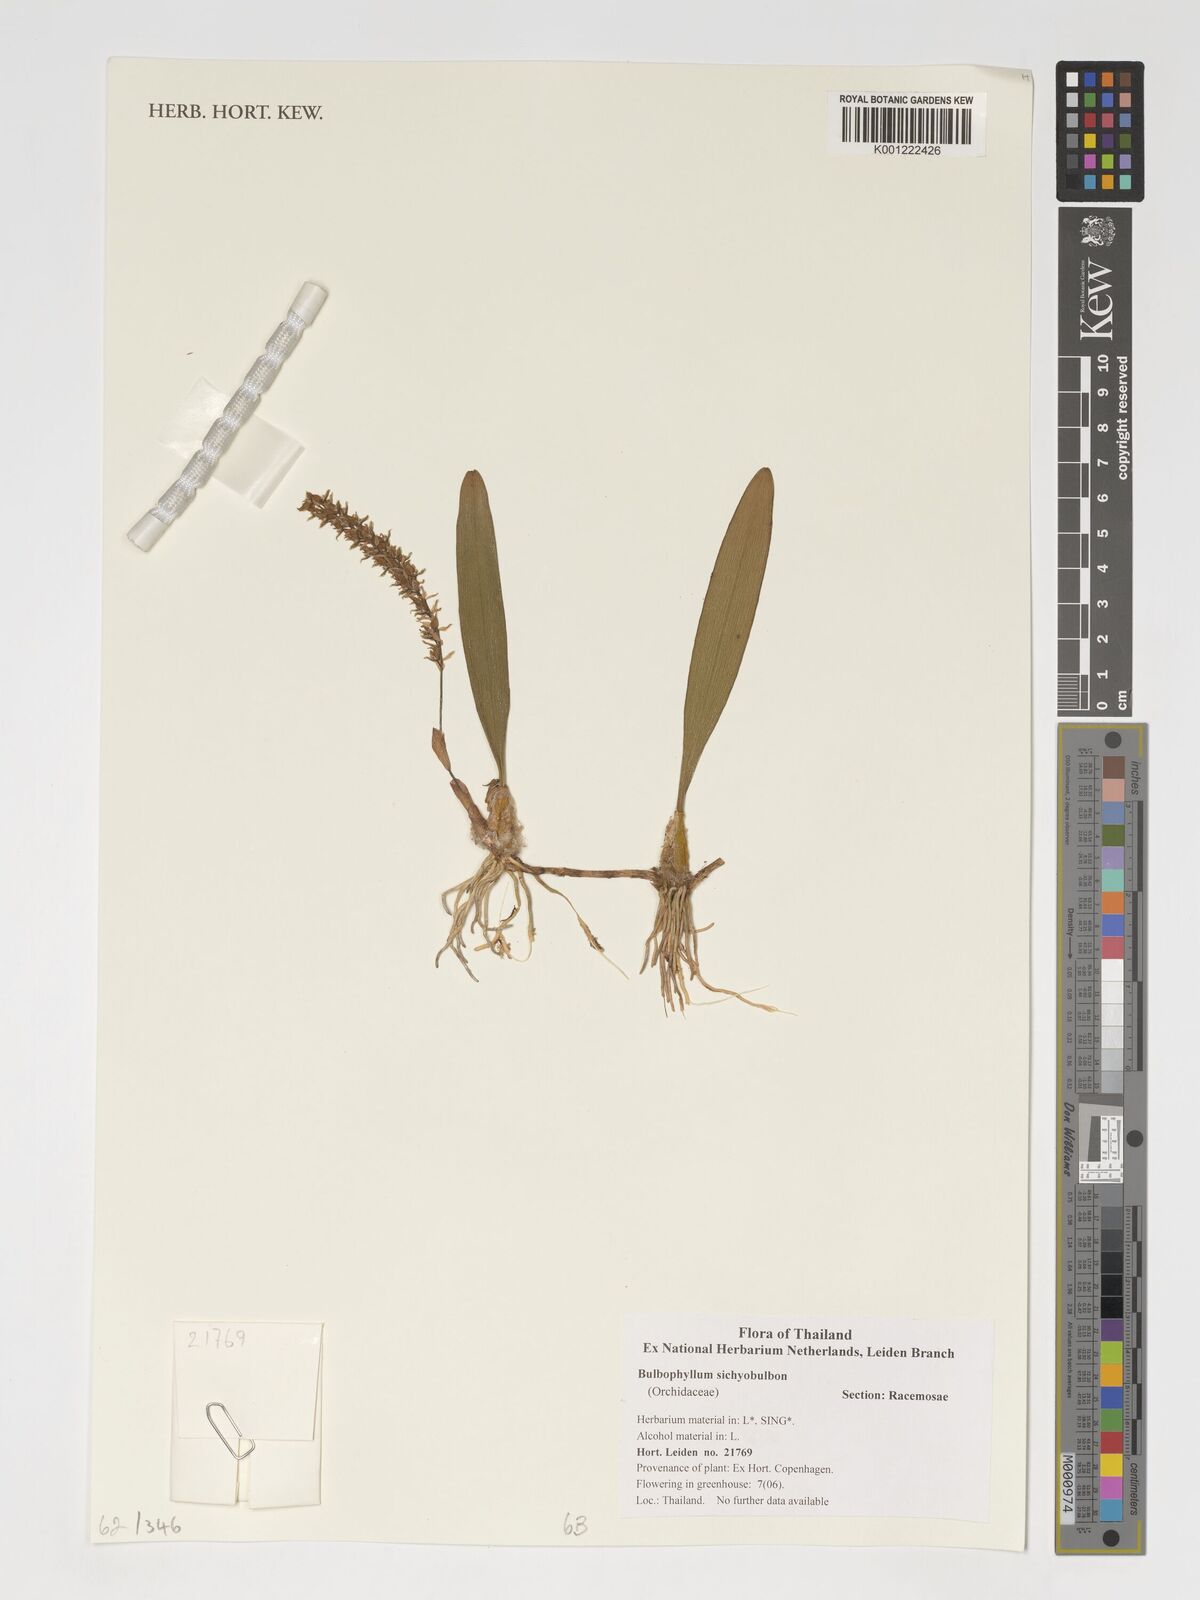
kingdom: Plantae
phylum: Tracheophyta
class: Liliopsida
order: Asparagales
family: Orchidaceae
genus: Bulbophyllum
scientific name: Bulbophyllum
